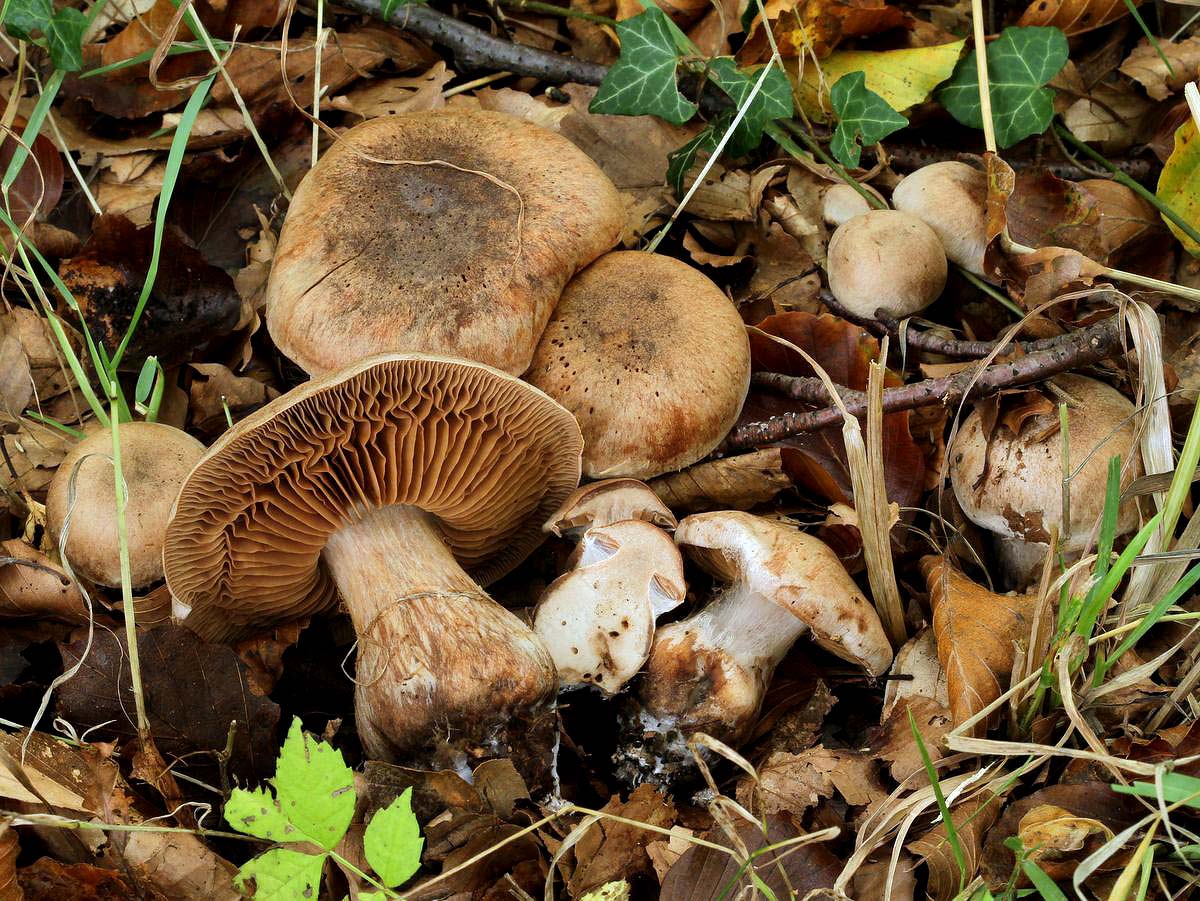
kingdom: Fungi
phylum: Basidiomycota
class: Agaricomycetes
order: Agaricales
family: Cortinariaceae
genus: Cortinarius
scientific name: Cortinarius aprinus
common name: vildsvine-slørhat
